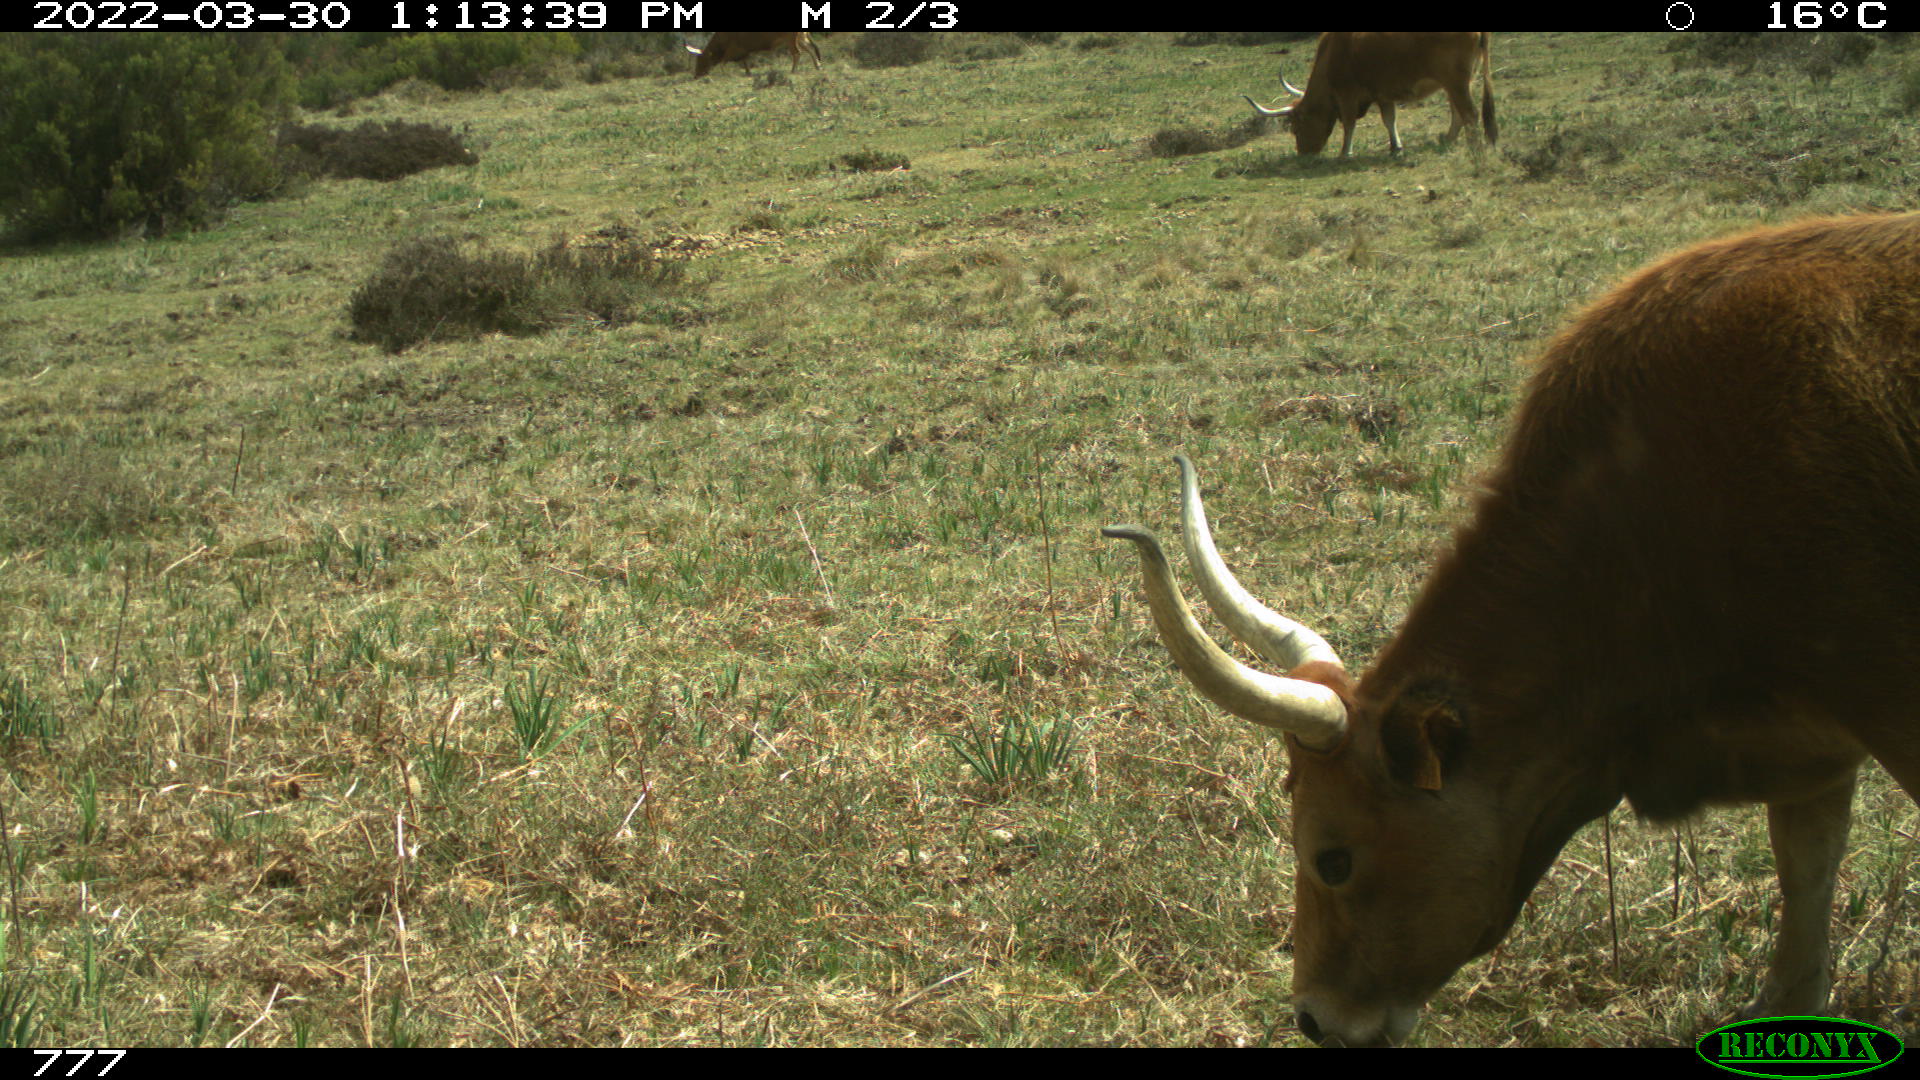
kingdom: Animalia
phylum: Chordata
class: Mammalia
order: Artiodactyla
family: Bovidae
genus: Bos
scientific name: Bos taurus
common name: Domesticated cattle
